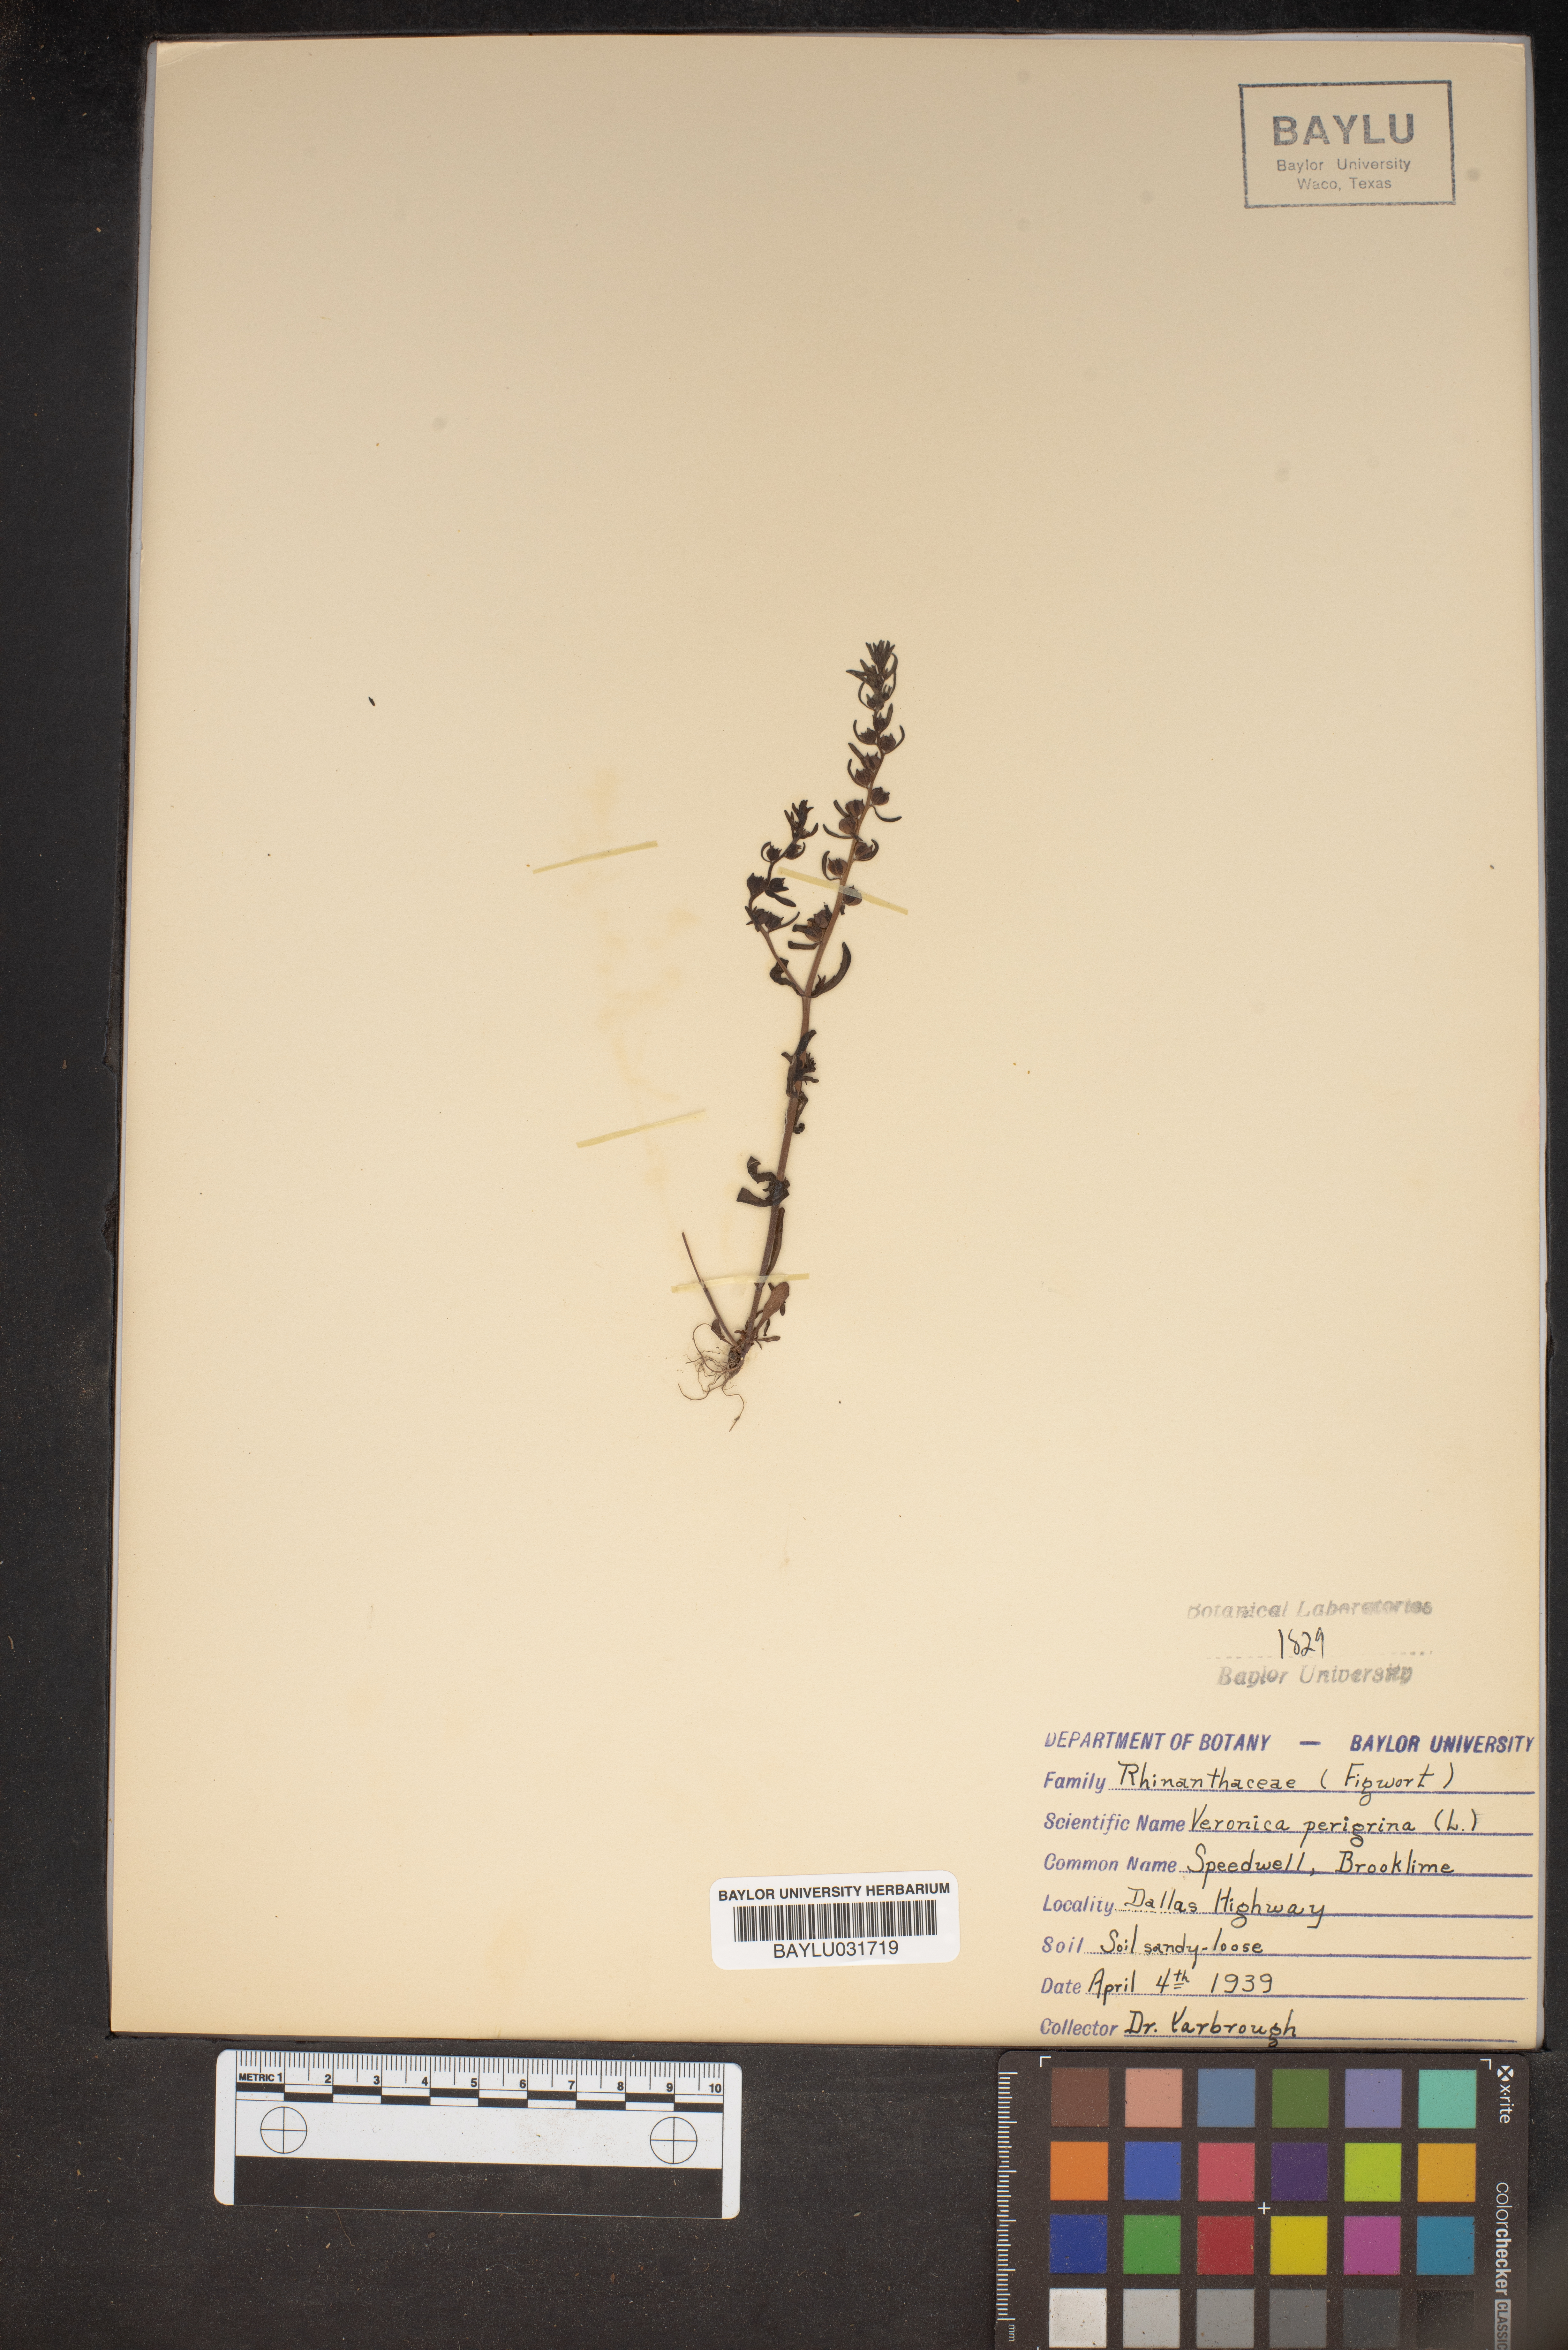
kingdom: Plantae
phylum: Tracheophyta
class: Magnoliopsida
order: Lamiales
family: Plantaginaceae
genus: Veronica
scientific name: Veronica peregrina
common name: Neckweed
